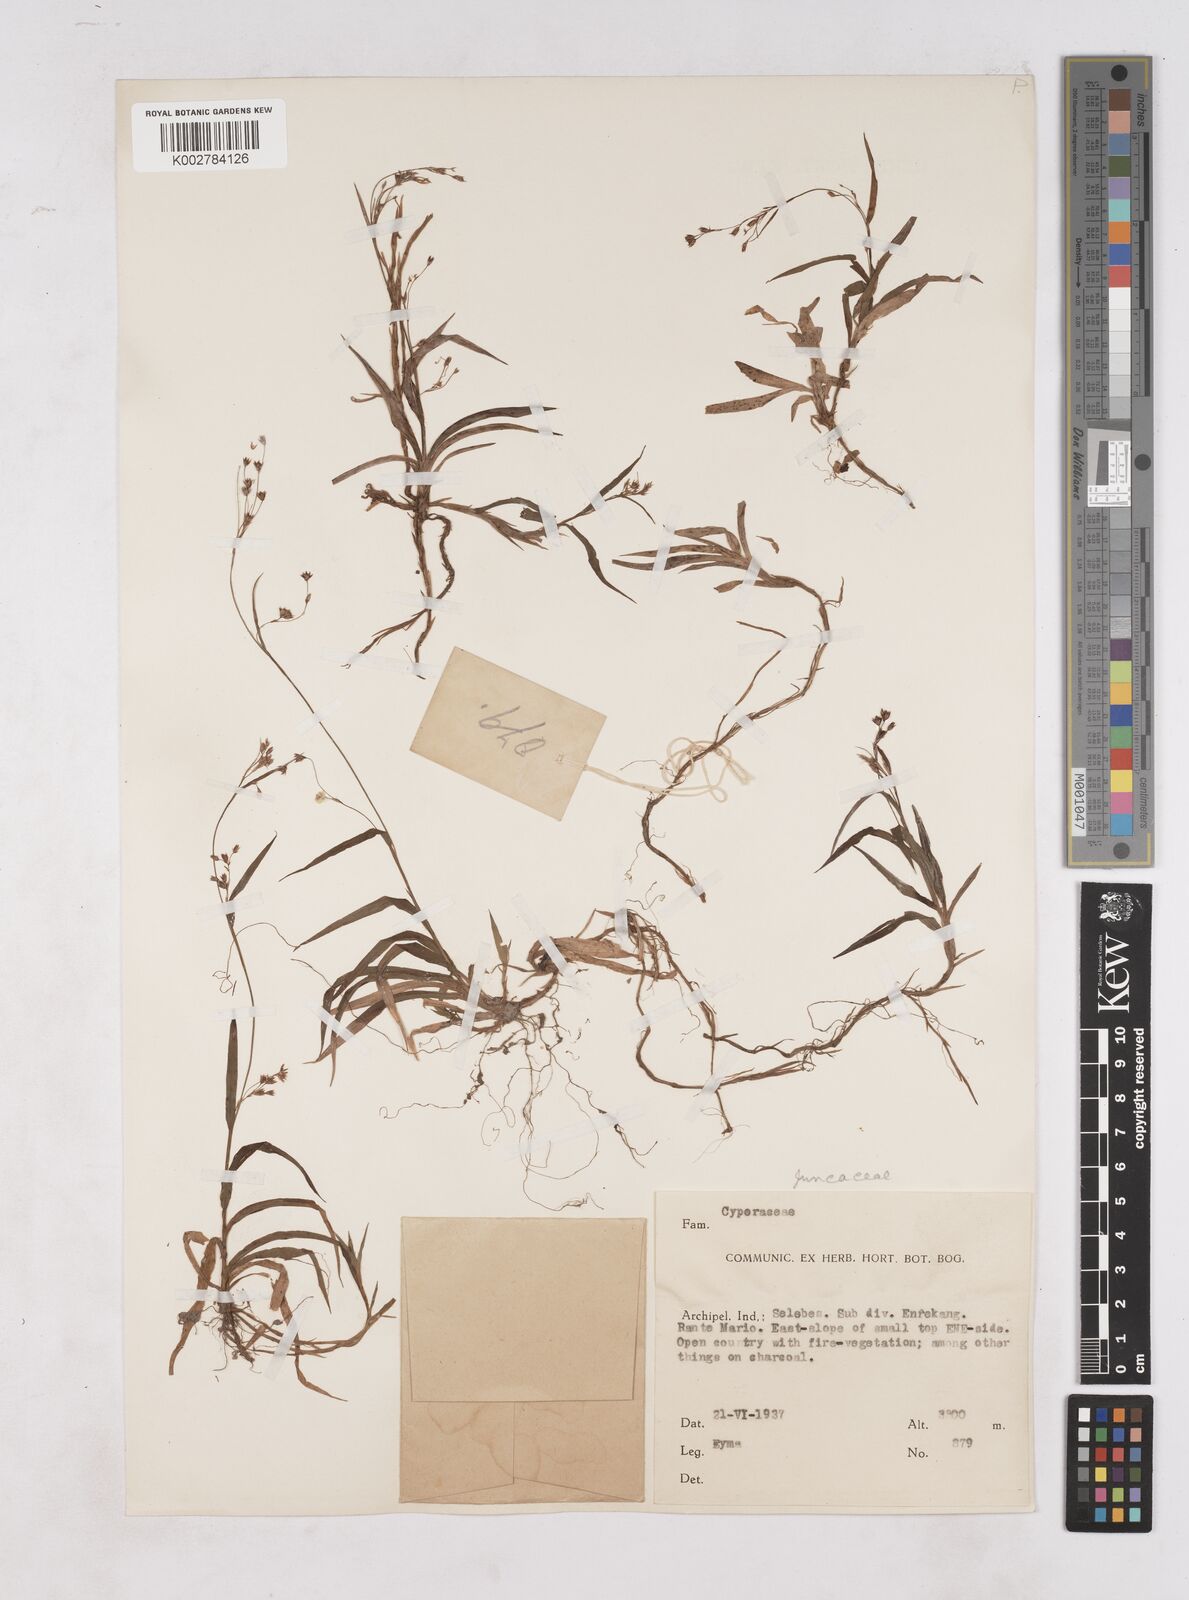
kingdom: Plantae
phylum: Tracheophyta
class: Liliopsida
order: Poales
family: Juncaceae
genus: Luzula
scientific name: Luzula effusa
